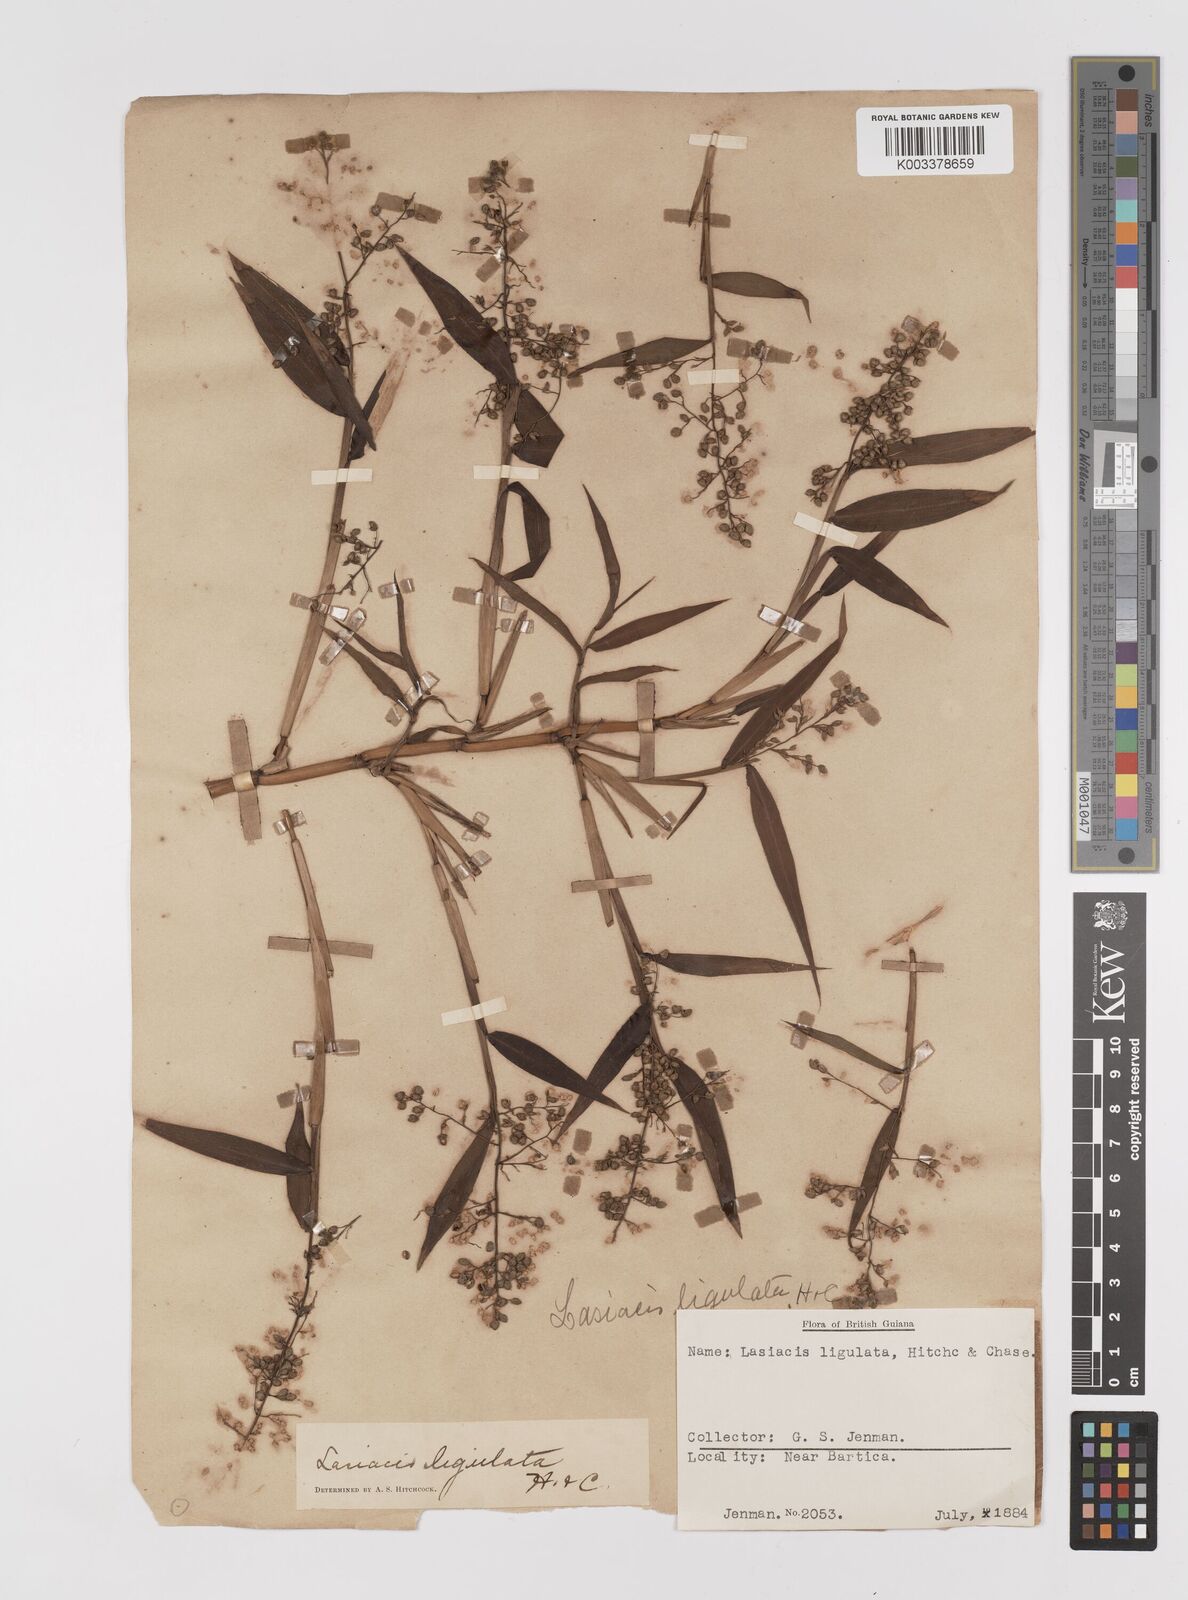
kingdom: Plantae
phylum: Tracheophyta
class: Liliopsida
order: Poales
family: Poaceae
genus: Lasiacis
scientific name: Lasiacis ligulata
